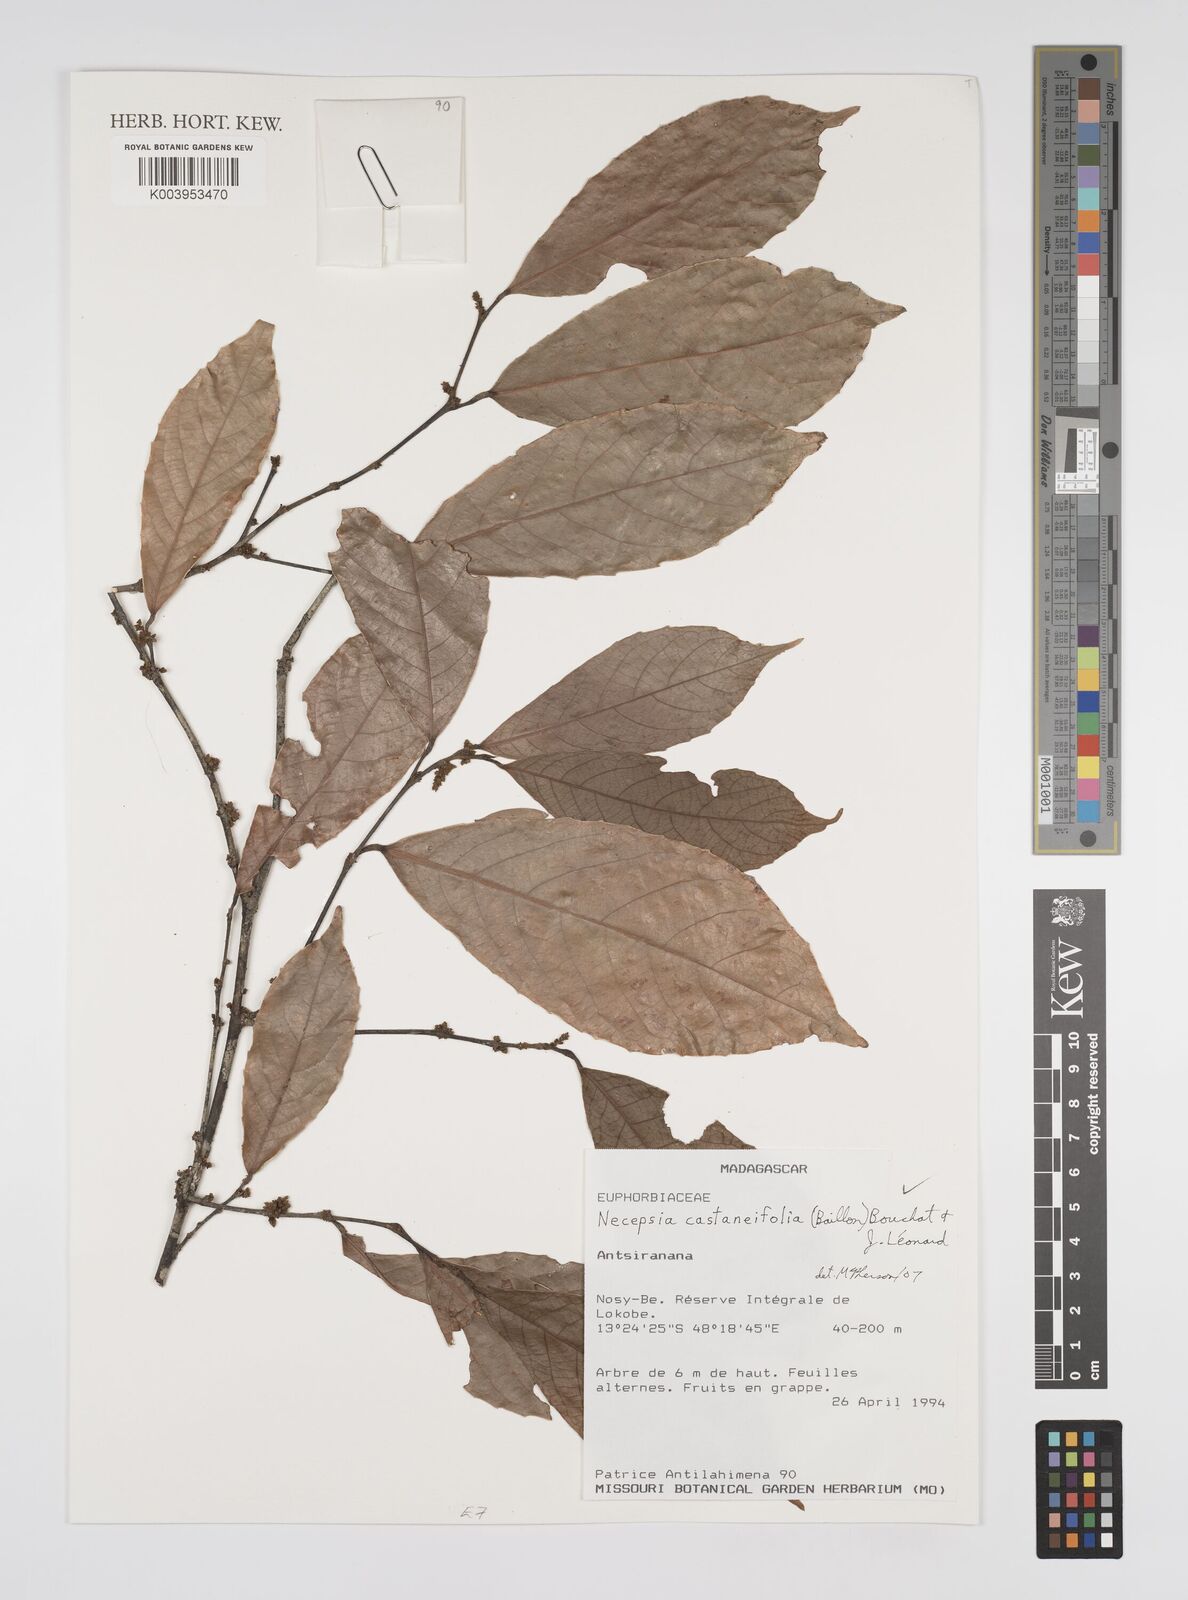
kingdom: Plantae
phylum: Tracheophyta
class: Magnoliopsida
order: Malpighiales
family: Euphorbiaceae
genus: Necepsia
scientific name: Necepsia castaneifolia
